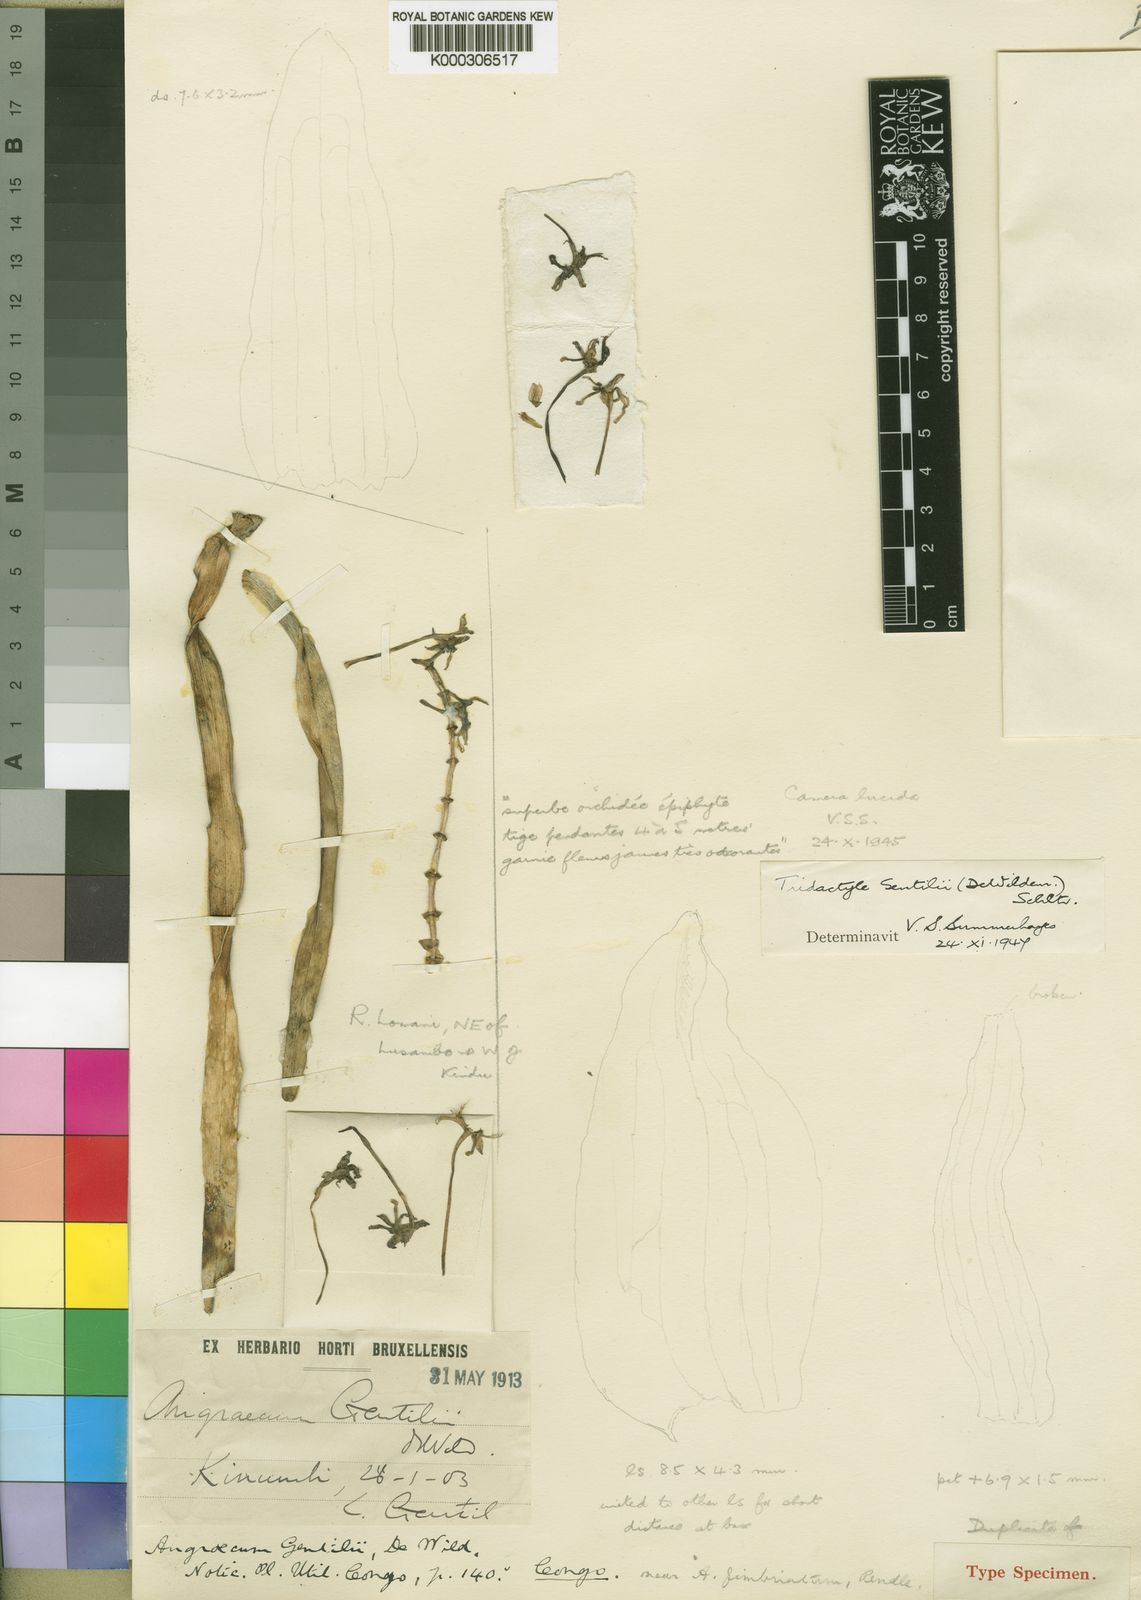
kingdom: Plantae
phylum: Tracheophyta
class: Liliopsida
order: Asparagales
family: Orchidaceae
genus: Tridactyle
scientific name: Tridactyle gentilii
